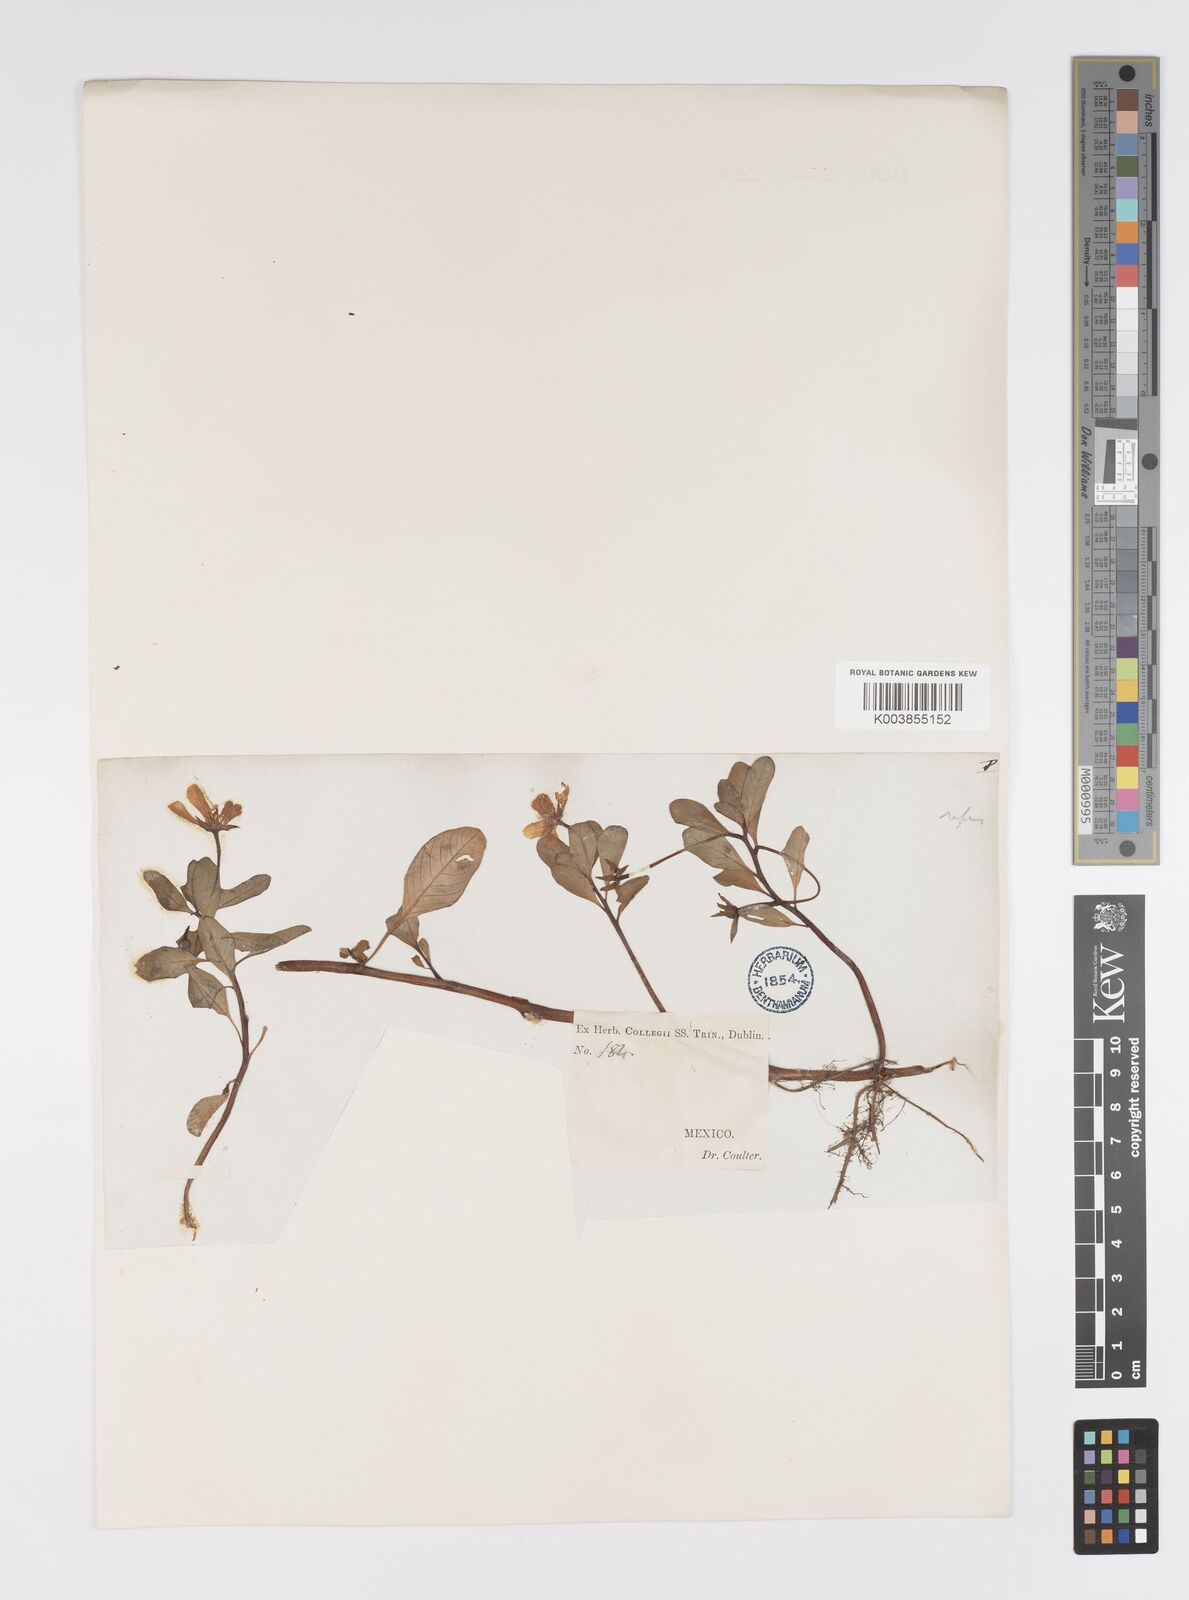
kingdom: Plantae
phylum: Tracheophyta
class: Magnoliopsida
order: Myrtales
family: Onagraceae
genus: Ludwigia
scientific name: Ludwigia adscendens
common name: Creeping water primrose
